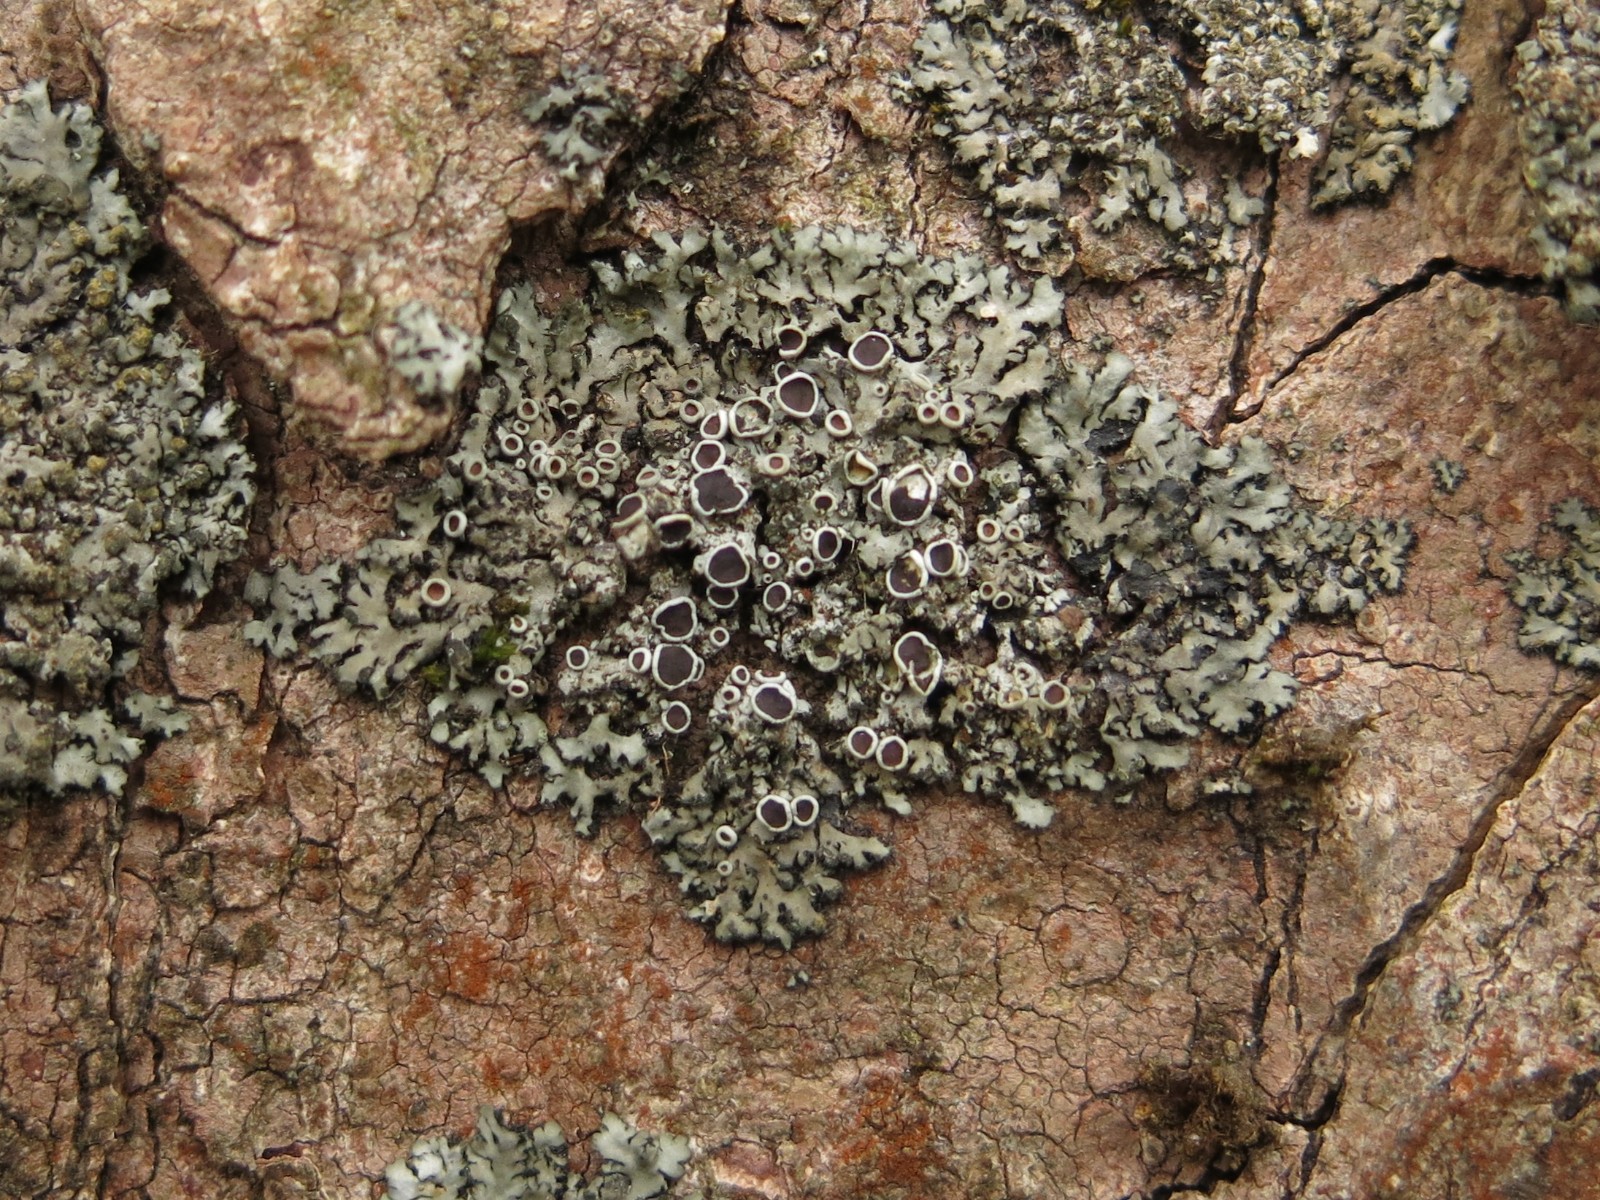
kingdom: Fungi
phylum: Ascomycota
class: Lecanoromycetes
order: Caliciales
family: Physciaceae
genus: Phaeophyscia
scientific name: Phaeophyscia orbicularis
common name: grågrøn rosetlav
